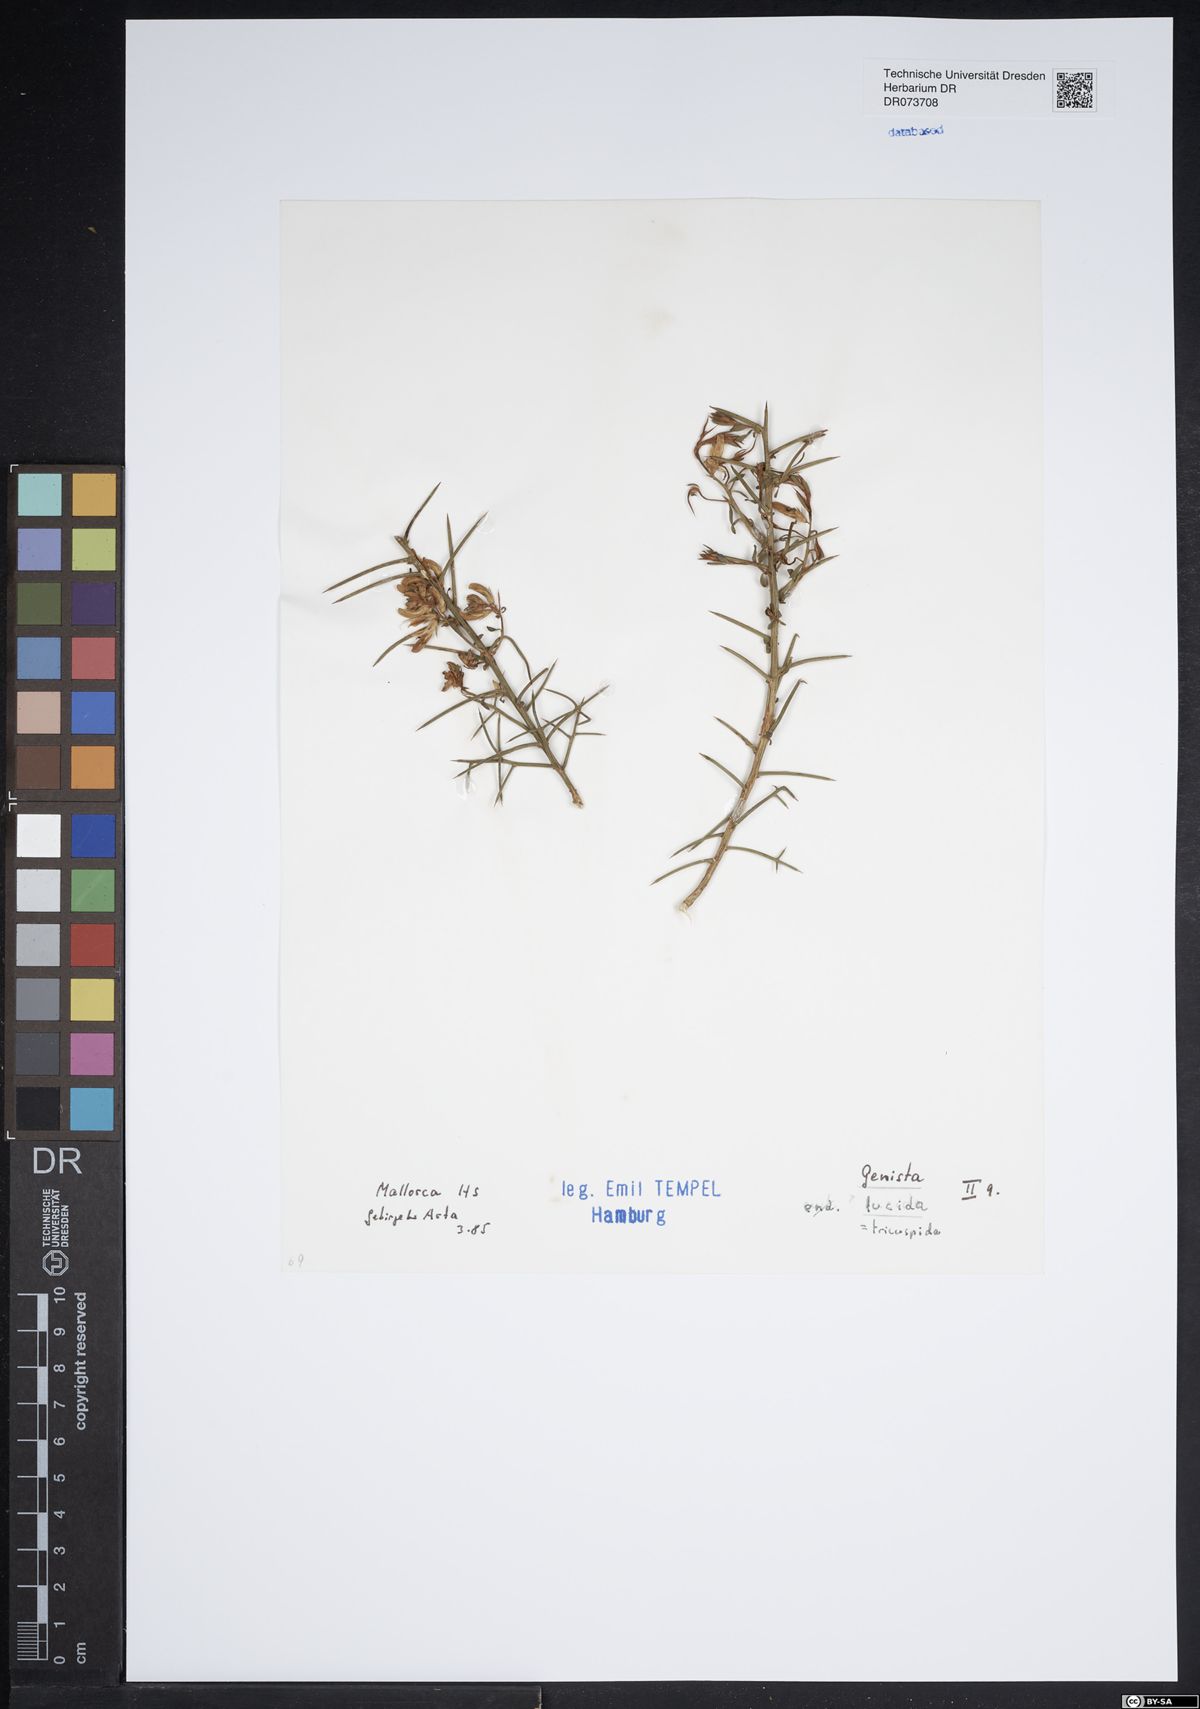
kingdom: Plantae
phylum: Tracheophyta
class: Magnoliopsida
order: Fabales
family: Fabaceae
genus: Genista
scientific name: Genista tricuspidata
